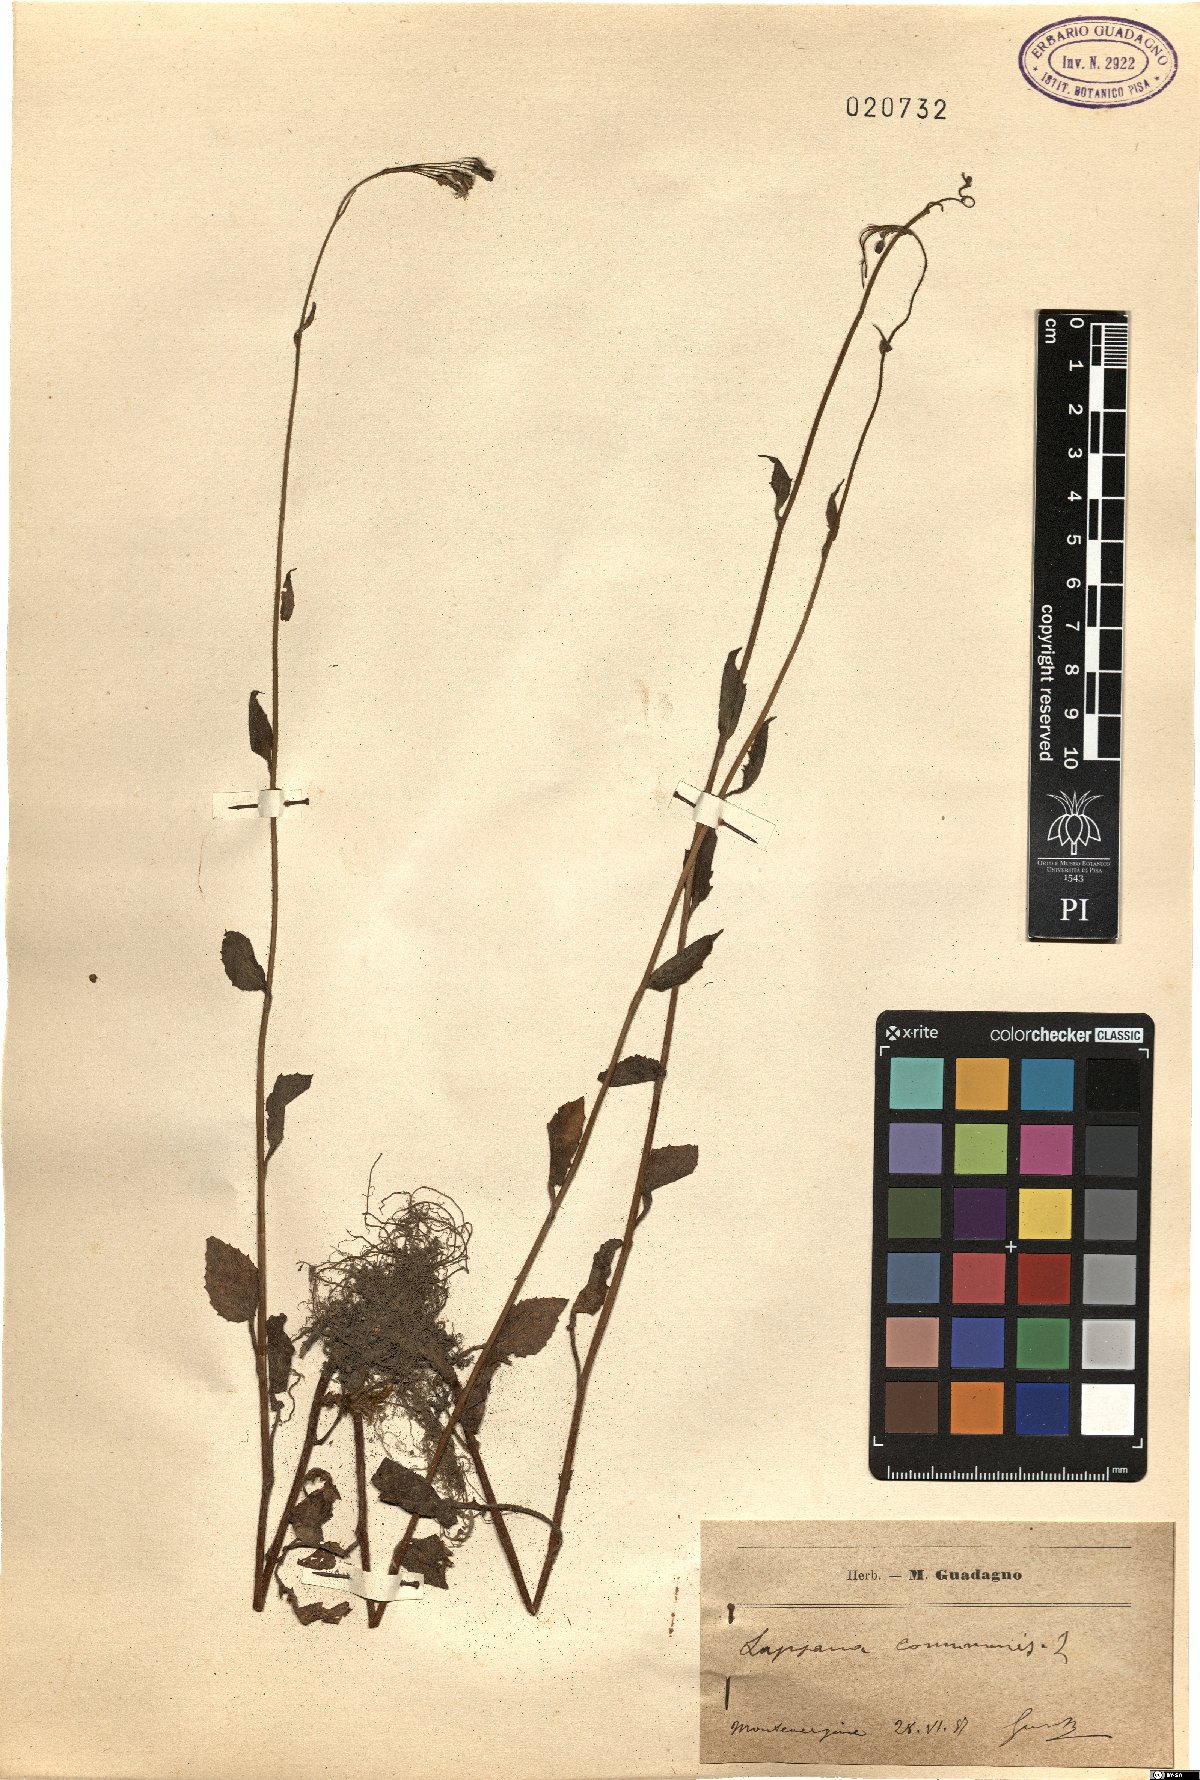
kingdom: Plantae
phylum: Tracheophyta
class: Magnoliopsida
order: Asterales
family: Asteraceae
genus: Lapsana
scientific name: Lapsana communis
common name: Nipplewort
